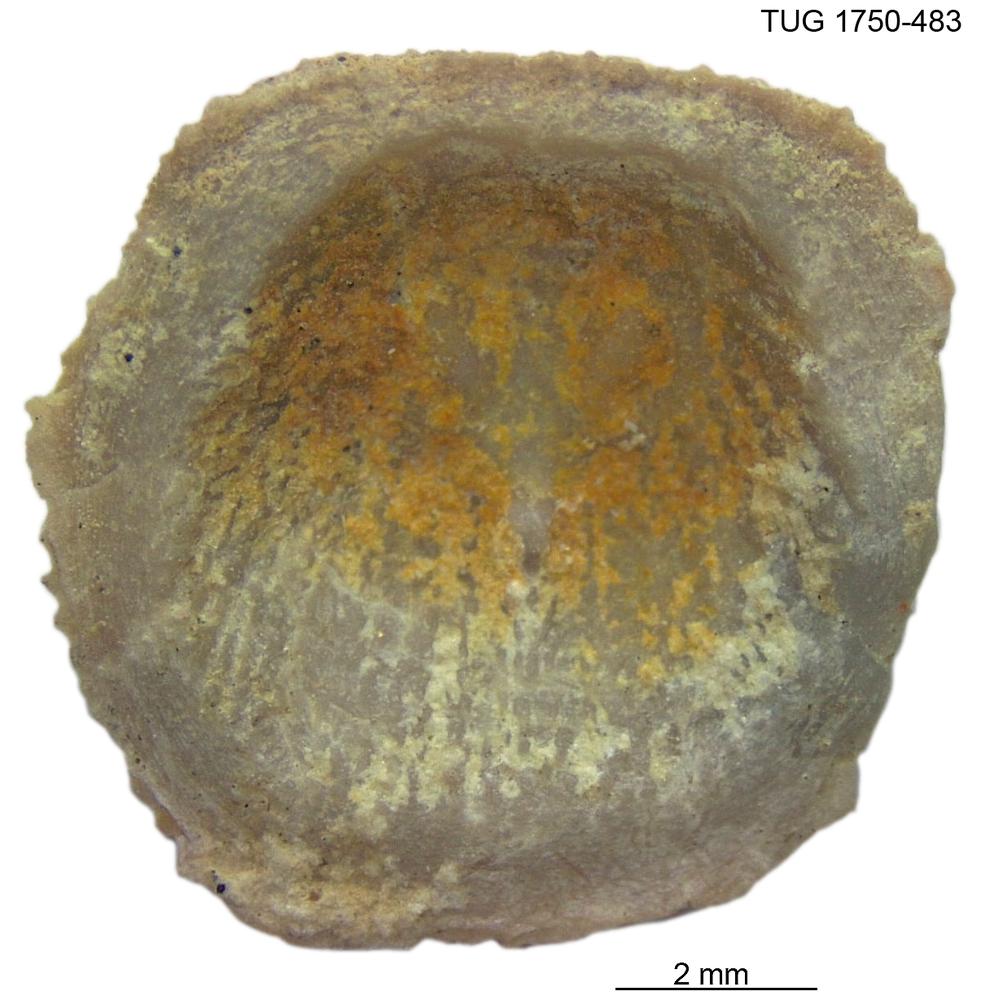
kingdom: Animalia
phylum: Brachiopoda
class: Craniata
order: Craniida
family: Craniidae
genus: Orthisocrania
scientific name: Orthisocrania
